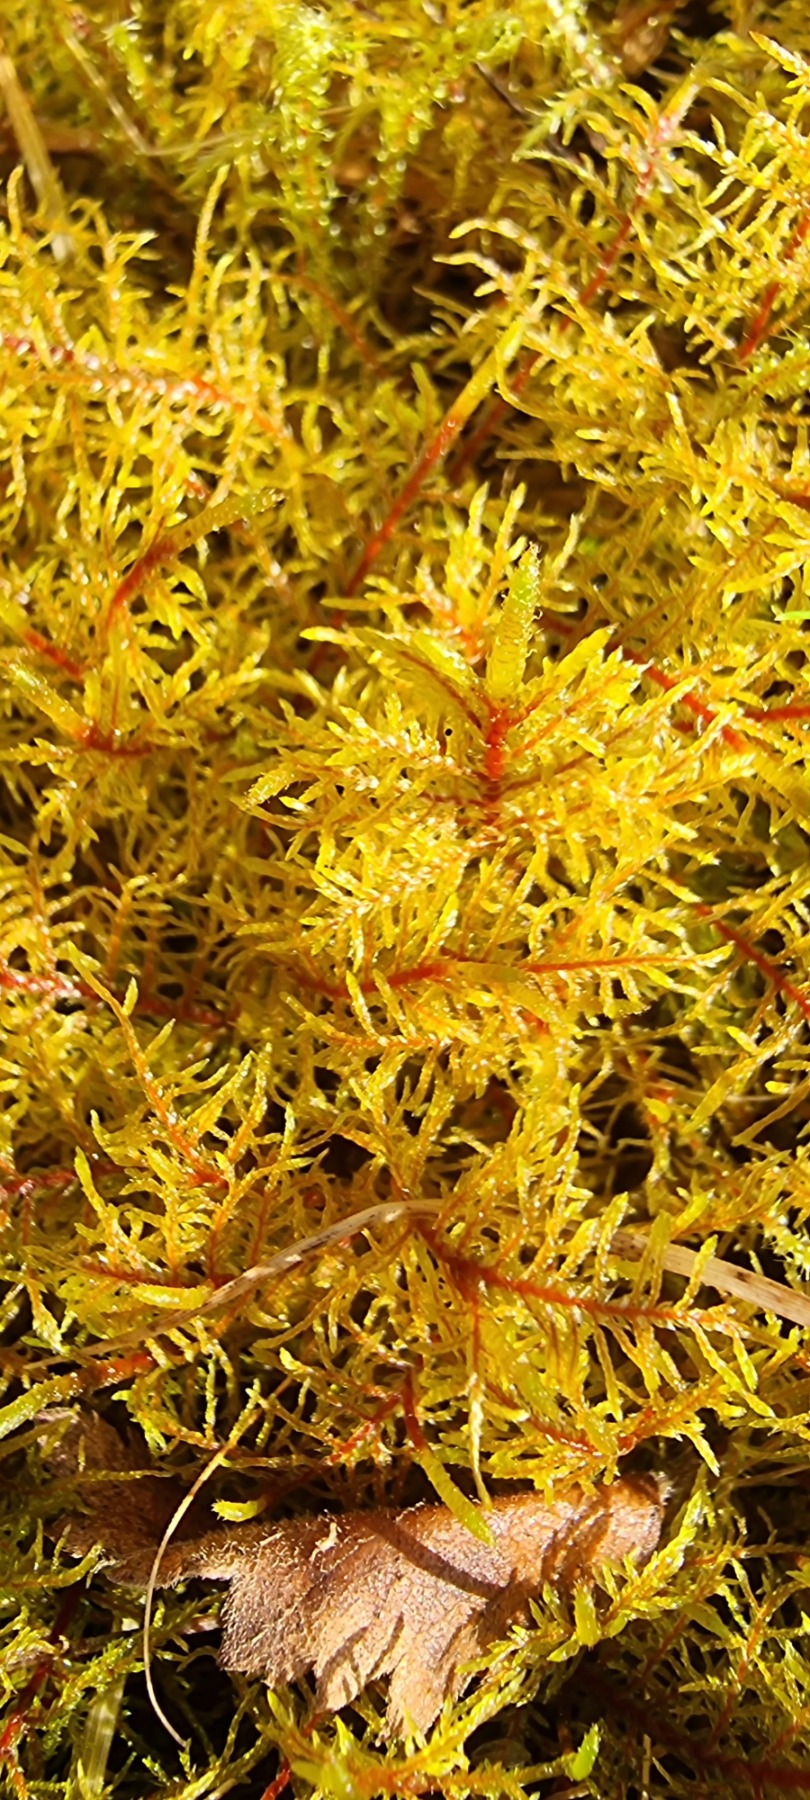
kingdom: Plantae
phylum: Bryophyta
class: Bryopsida
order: Hypnales
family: Hylocomiaceae
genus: Hylocomium
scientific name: Hylocomium splendens
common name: Almindelig etagemos
